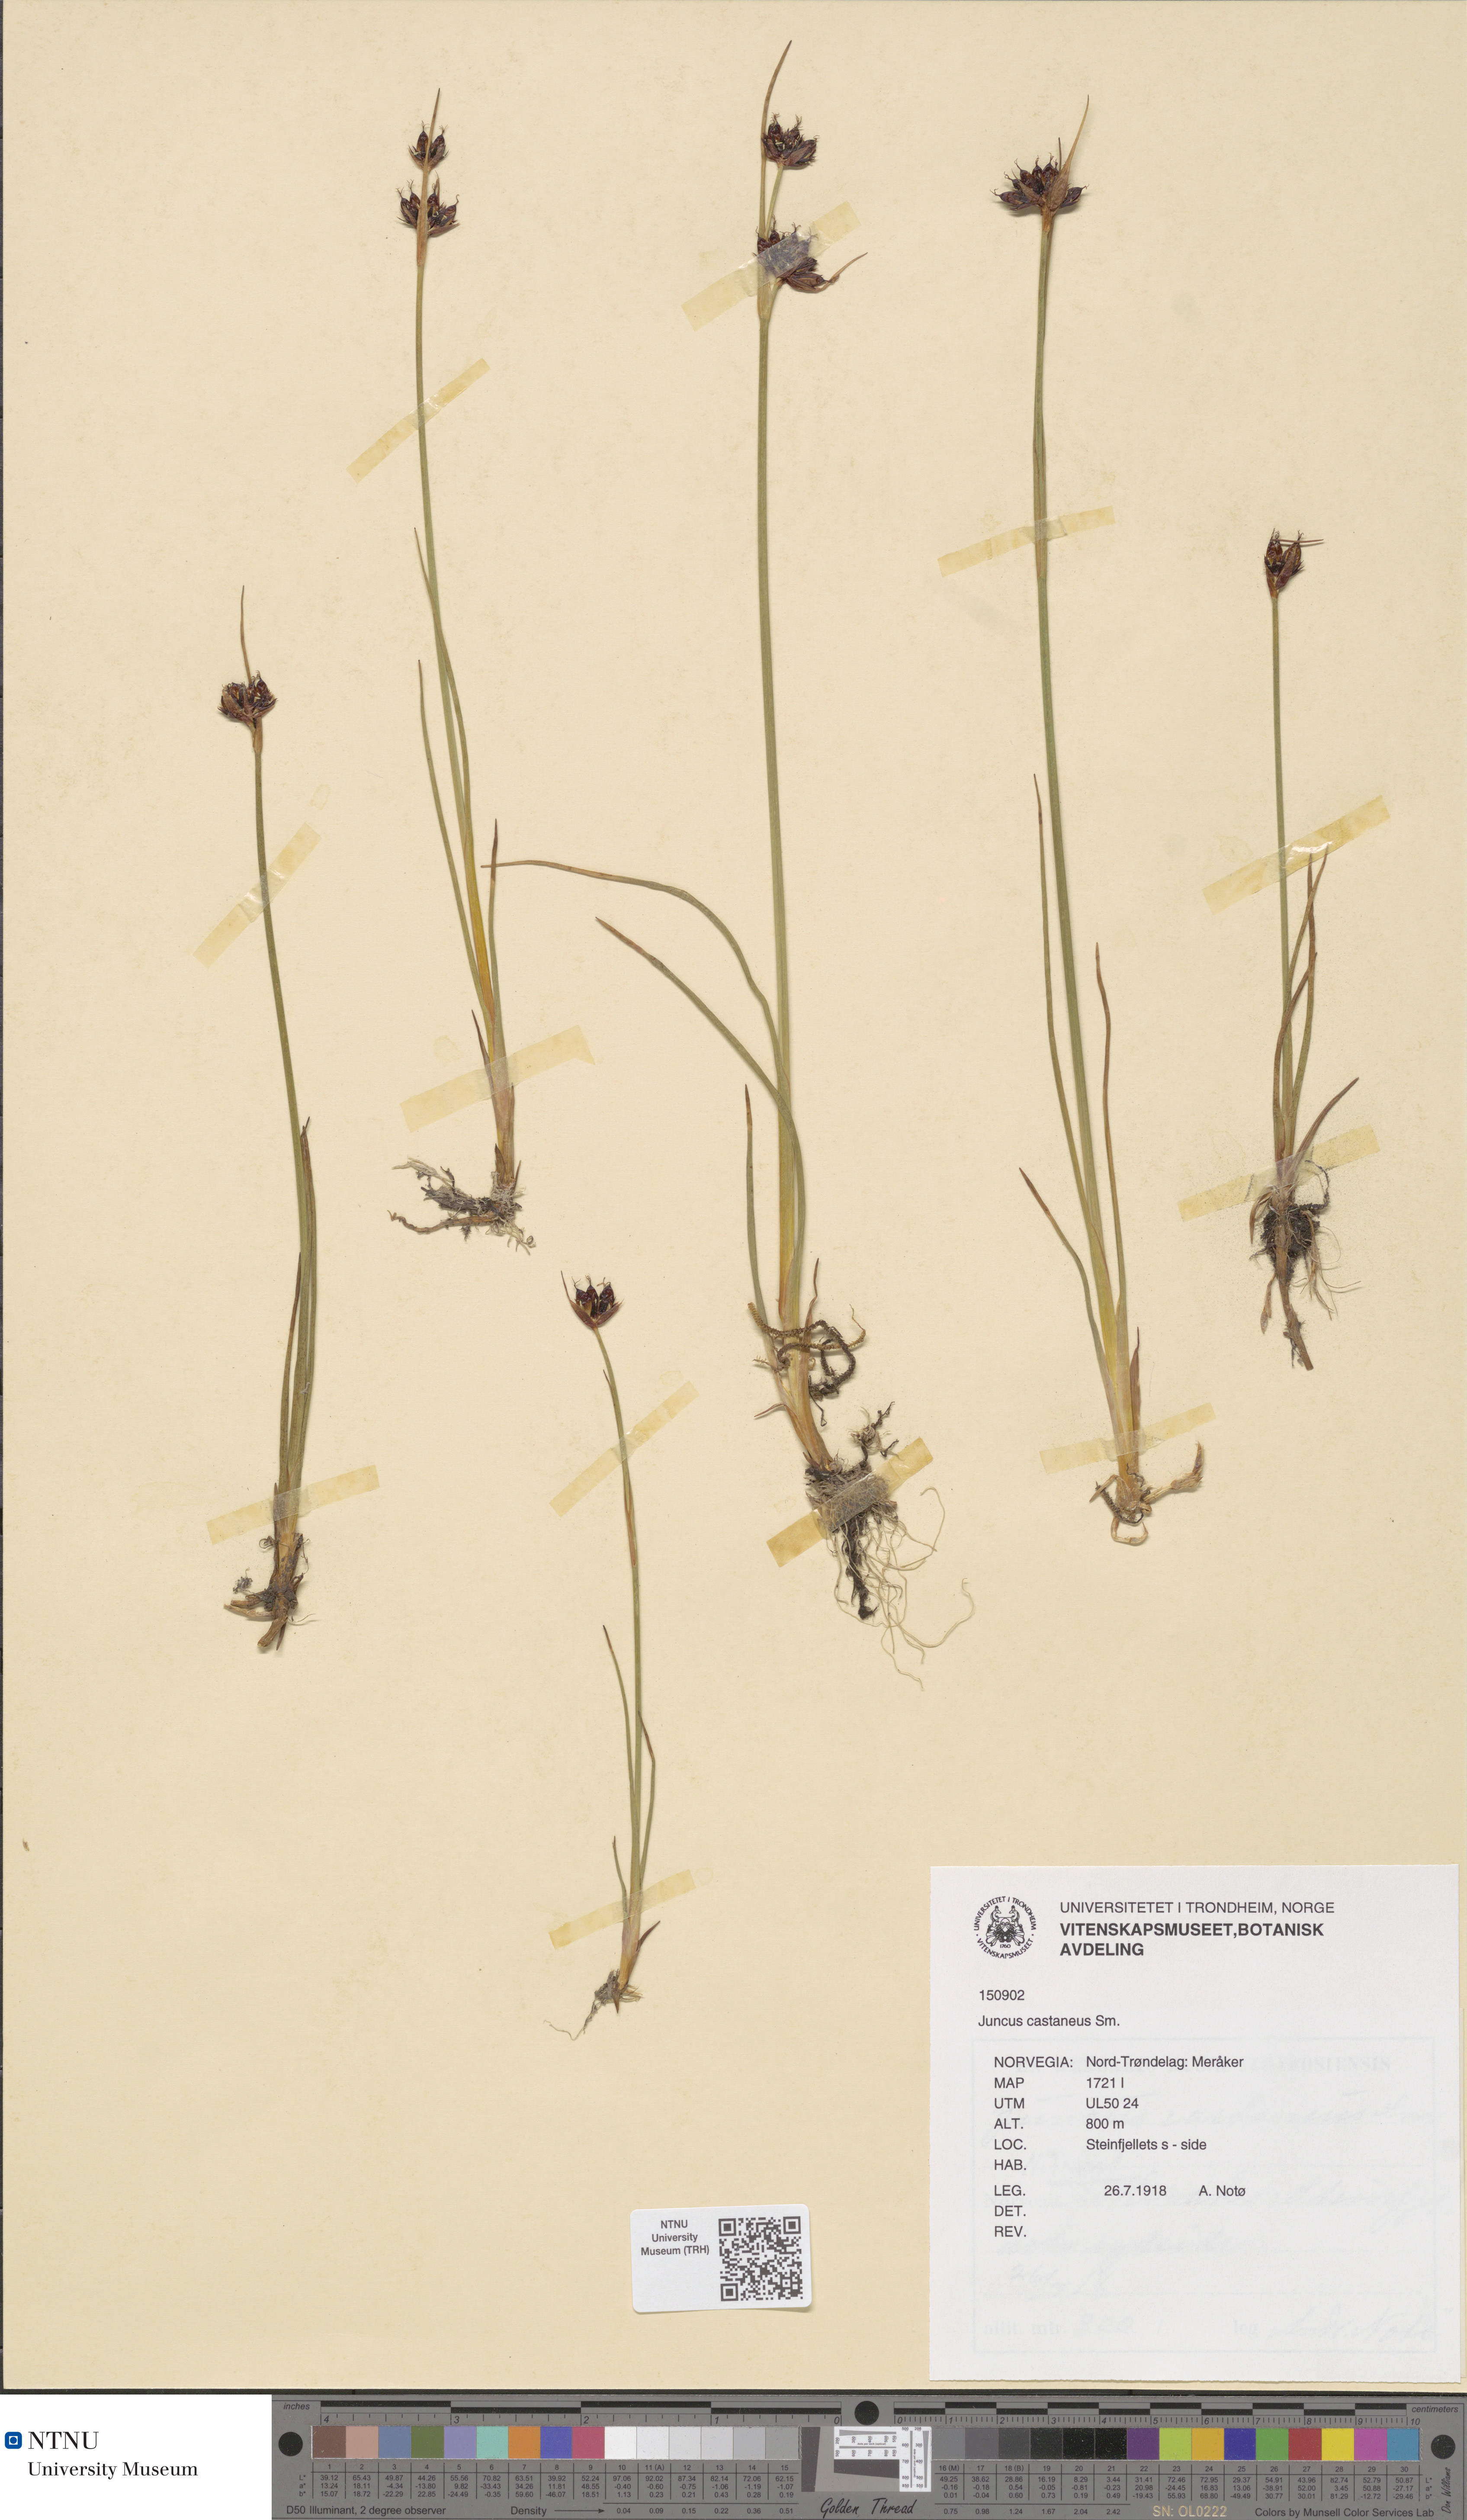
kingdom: Plantae
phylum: Tracheophyta
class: Liliopsida
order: Poales
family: Juncaceae
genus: Juncus
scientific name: Juncus castaneus
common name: Chestnut rush
